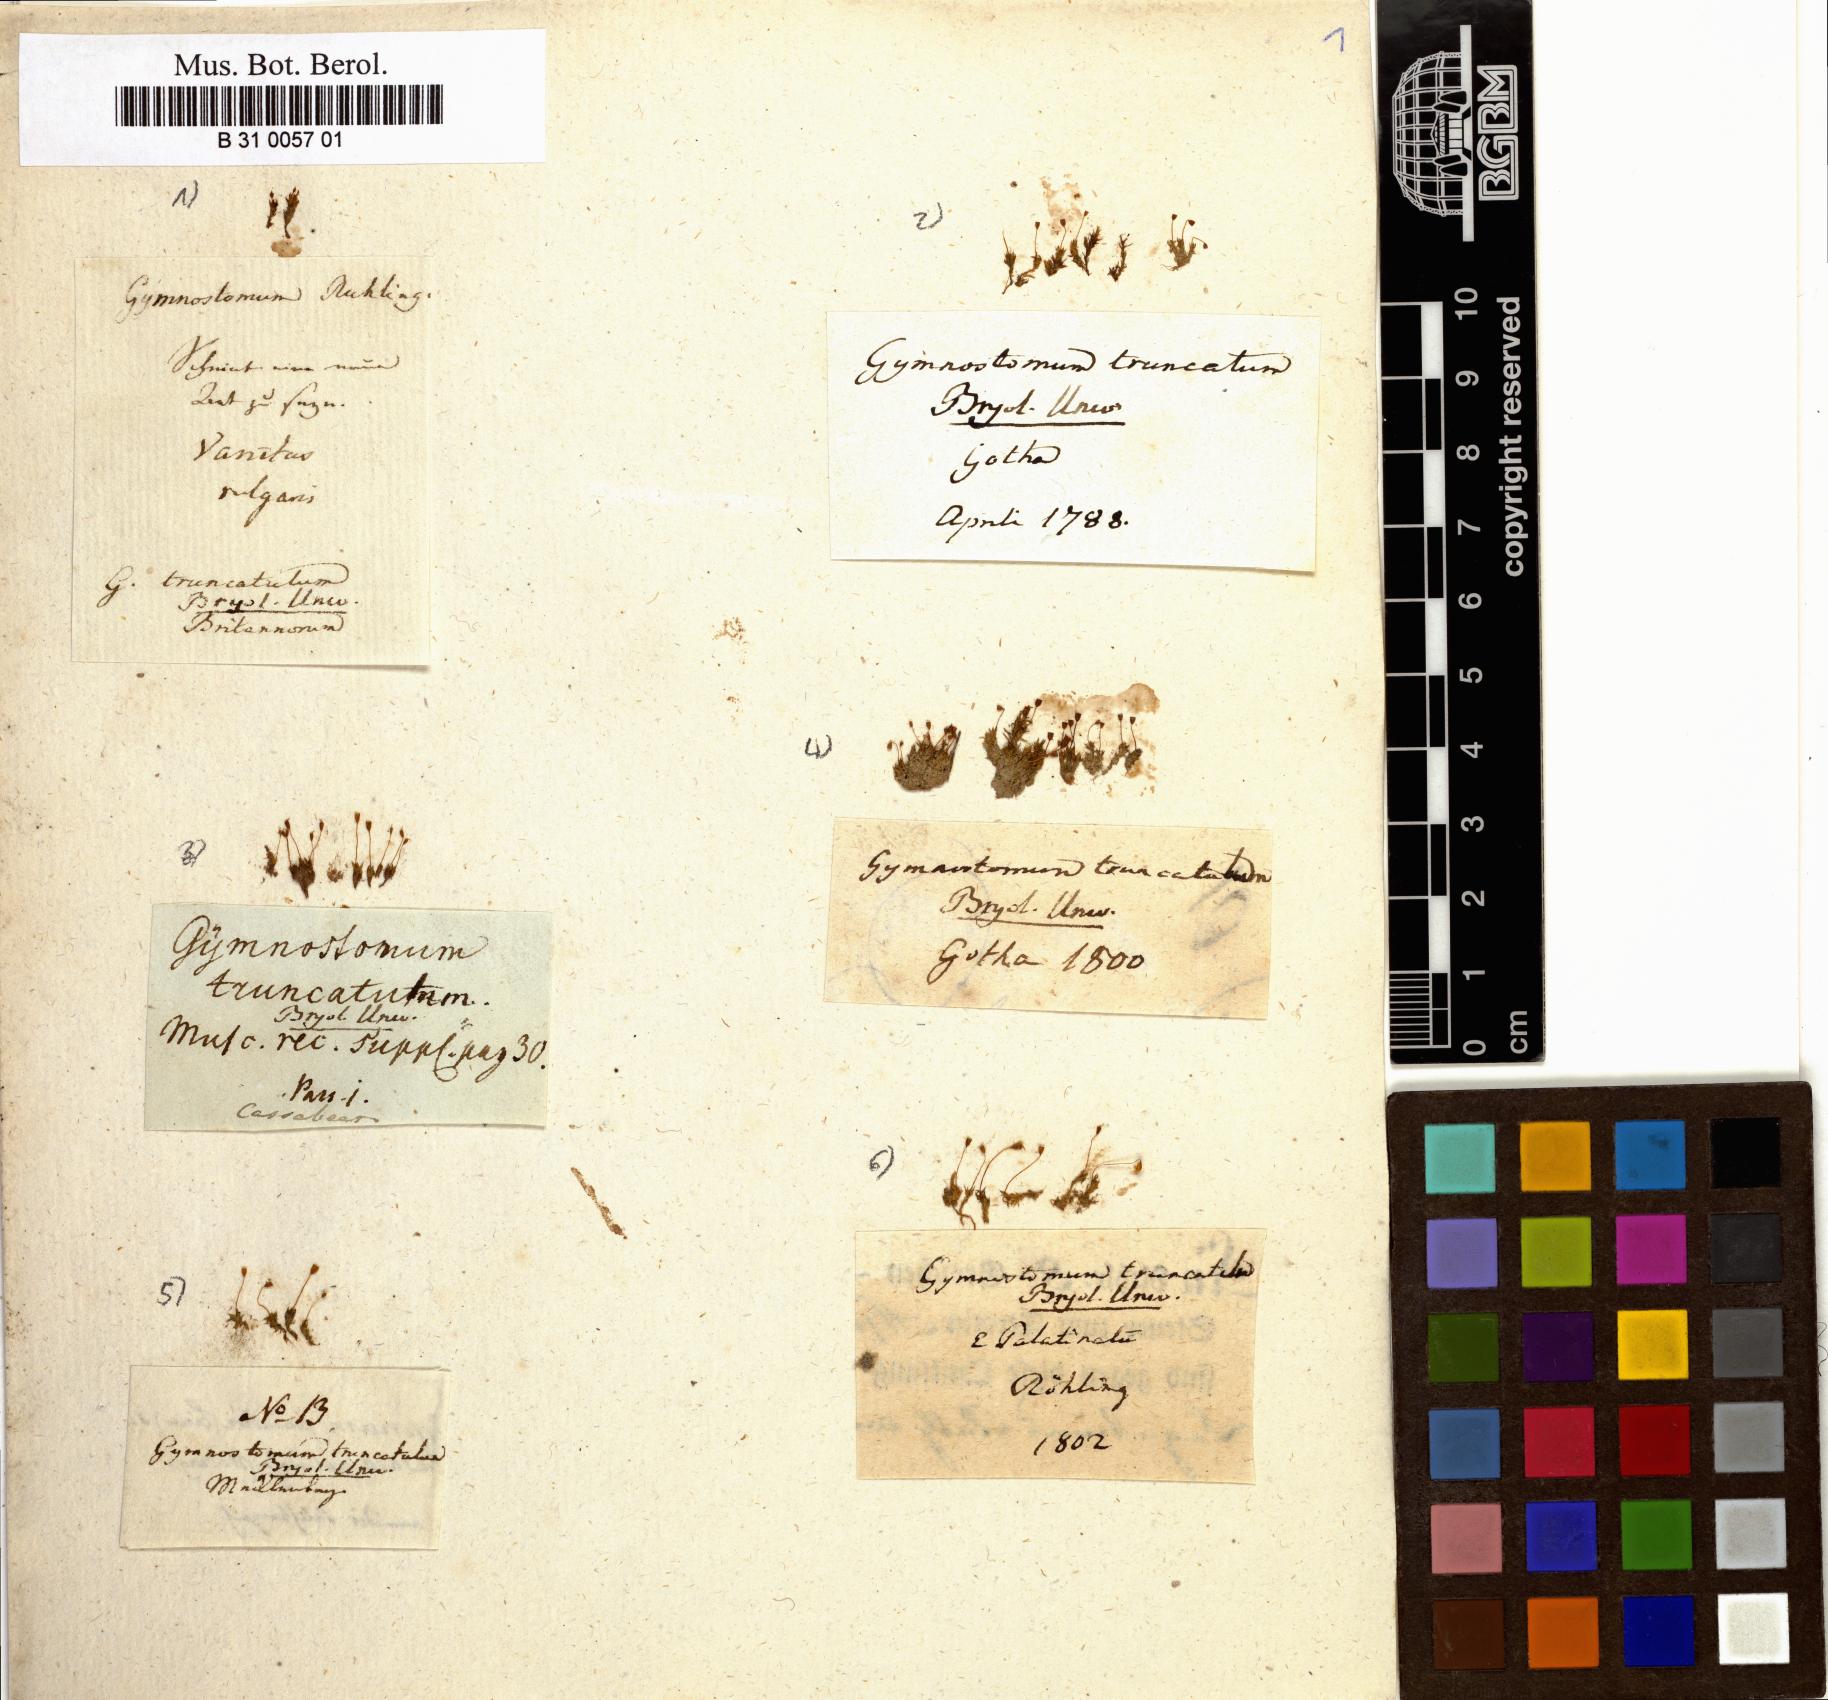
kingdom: Plantae
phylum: Bryophyta
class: Bryopsida
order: Pottiales
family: Pottiaceae
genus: Tortula
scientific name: Tortula truncata
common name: Truncated screw moss
